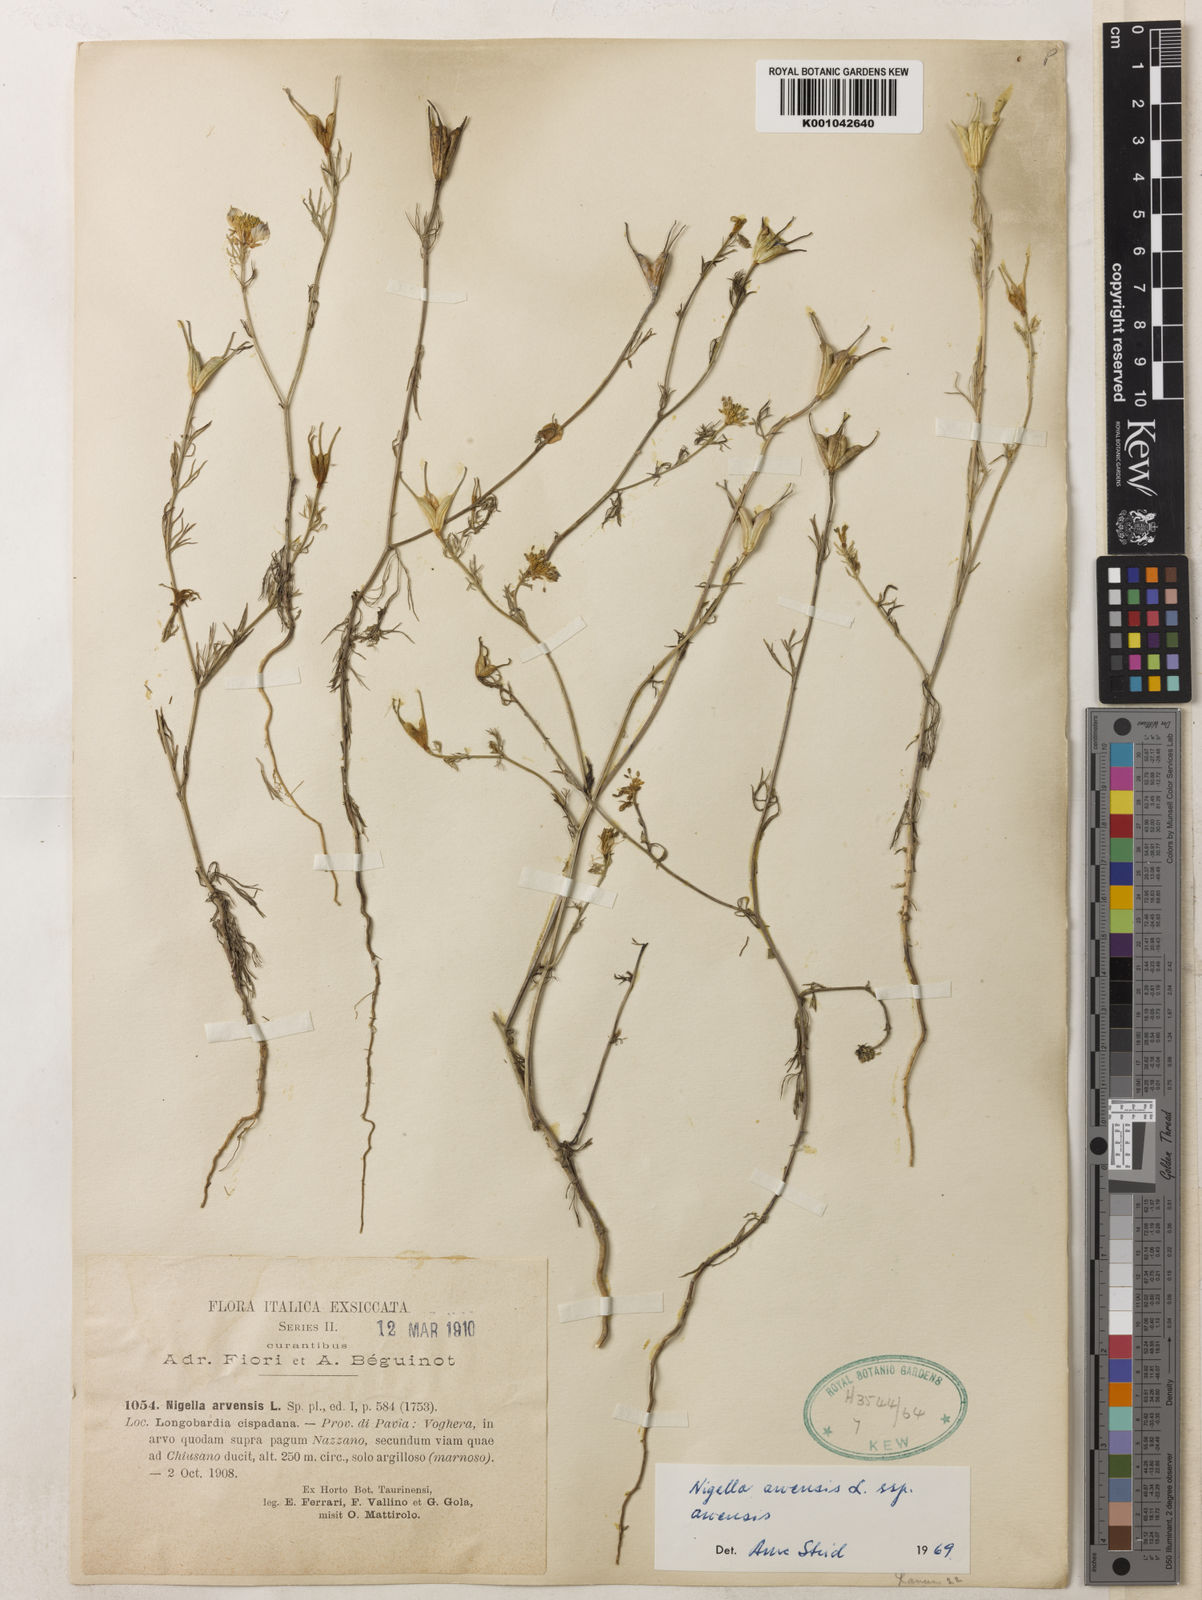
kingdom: Plantae
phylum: Tracheophyta
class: Magnoliopsida
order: Ranunculales
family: Ranunculaceae
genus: Nigella
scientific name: Nigella arvensis
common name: Wild fennel-flower
